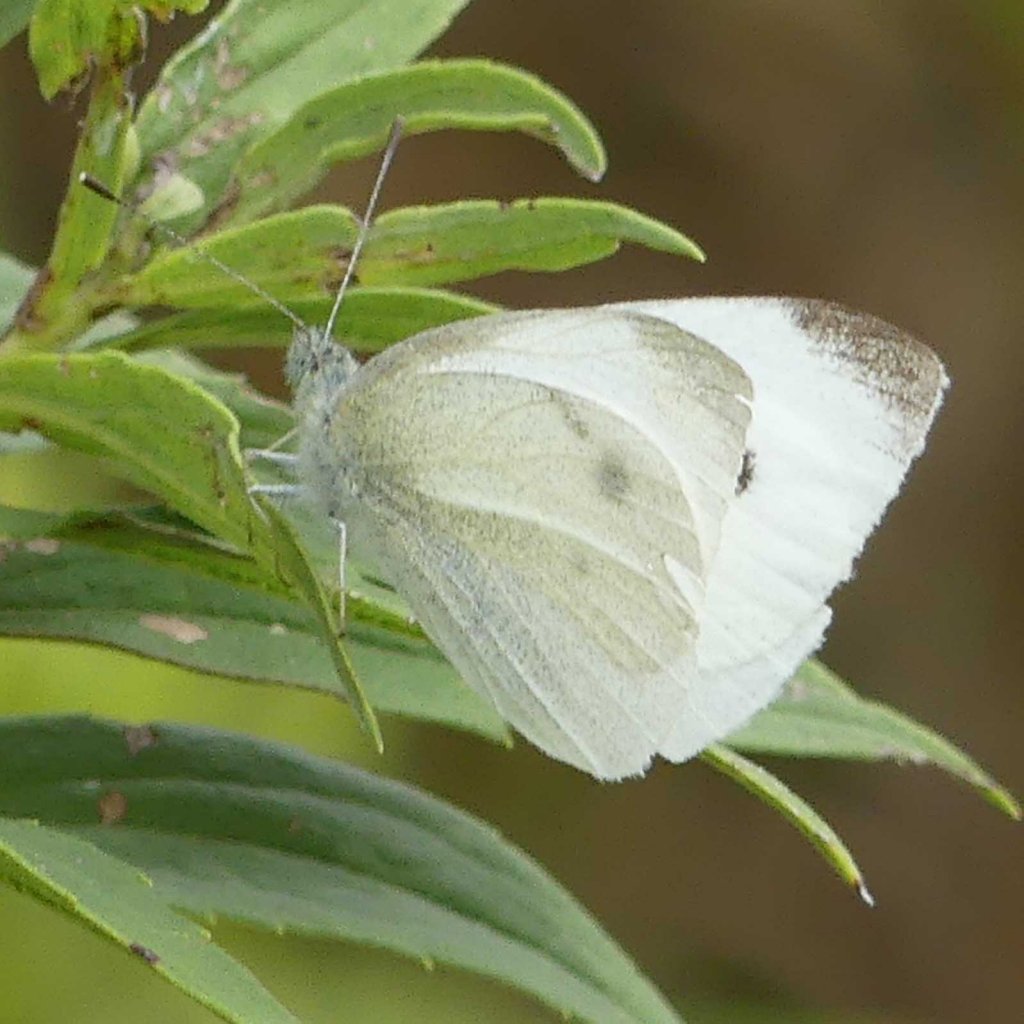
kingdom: Animalia
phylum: Arthropoda
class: Insecta
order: Lepidoptera
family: Pieridae
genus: Pieris
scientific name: Pieris rapae
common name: Cabbage White
